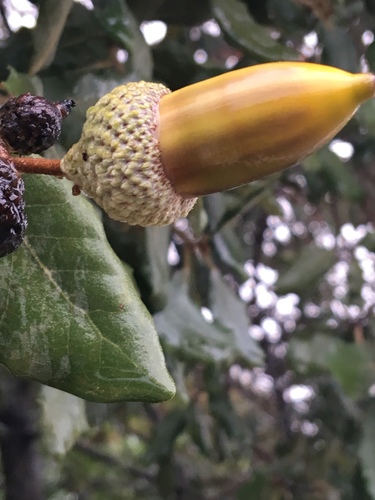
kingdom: Plantae
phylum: Tracheophyta
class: Magnoliopsida
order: Fagales
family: Fagaceae
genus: Quercus
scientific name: Quercus rotundifolia
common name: Holm oak
